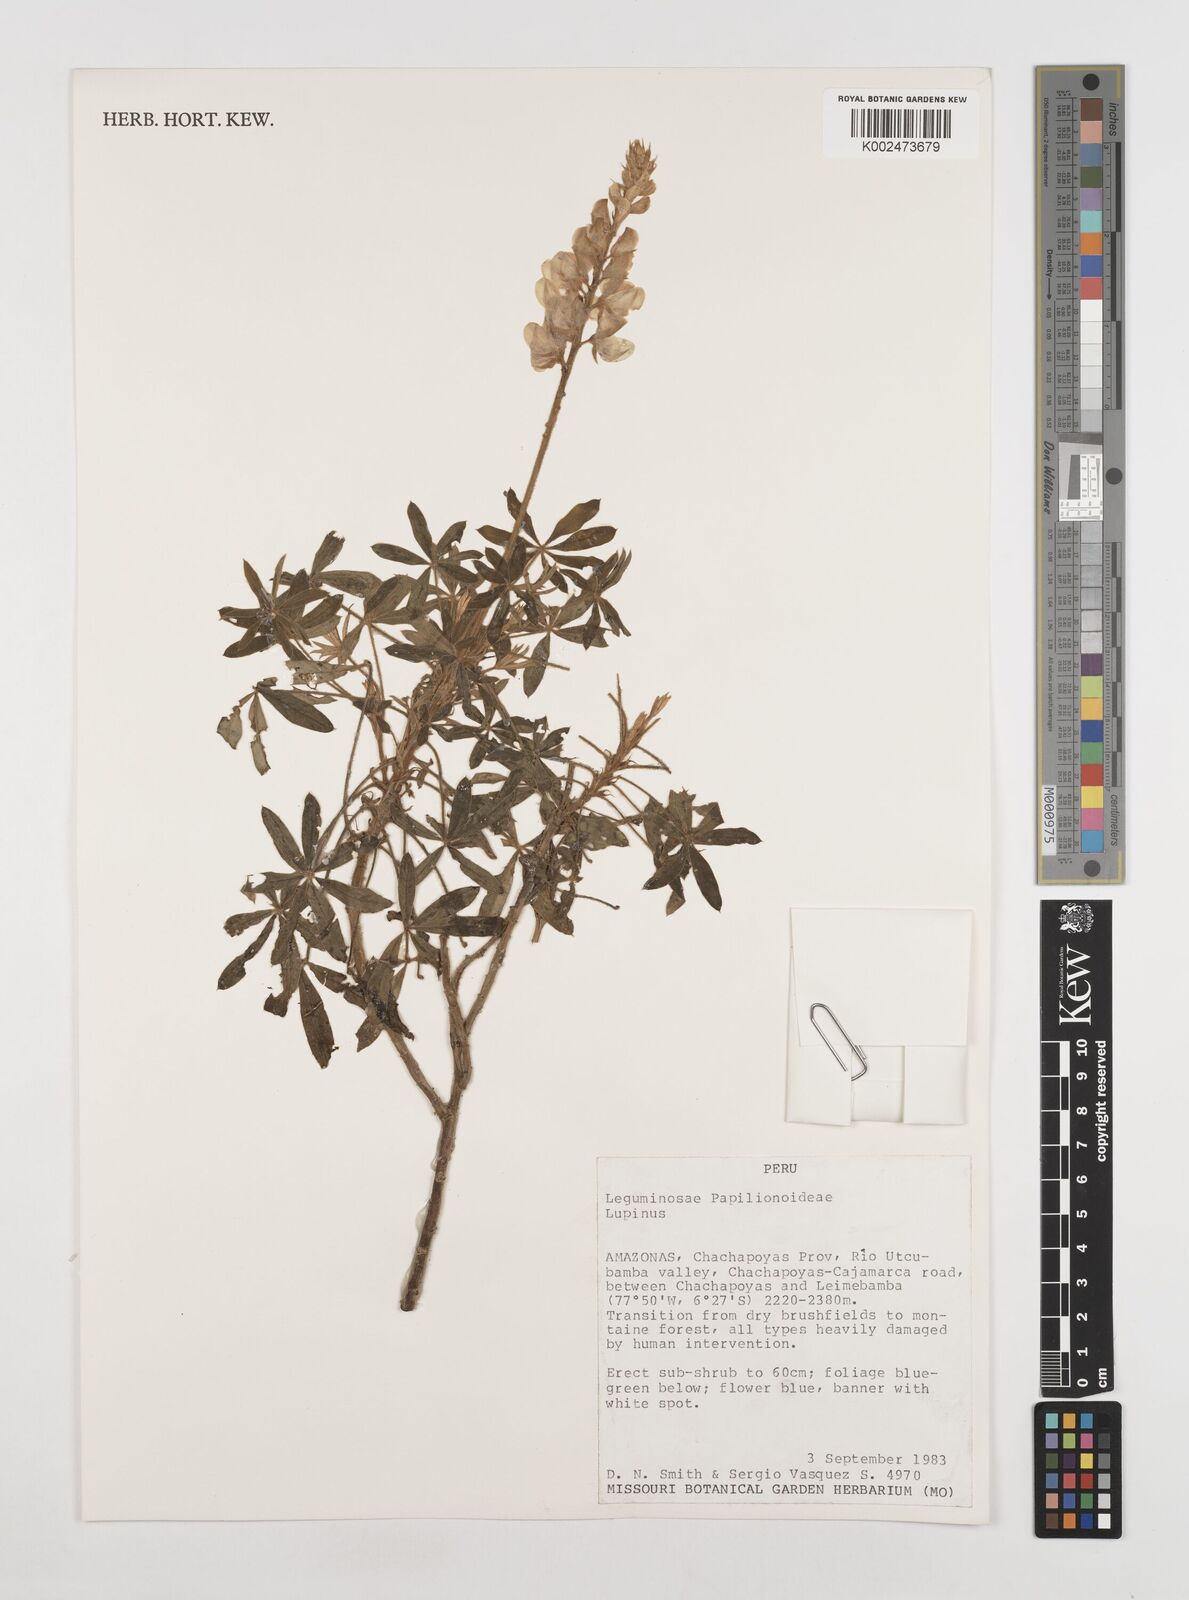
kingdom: Plantae
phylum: Tracheophyta
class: Magnoliopsida
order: Fabales
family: Fabaceae
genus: Lupinus
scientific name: Lupinus
